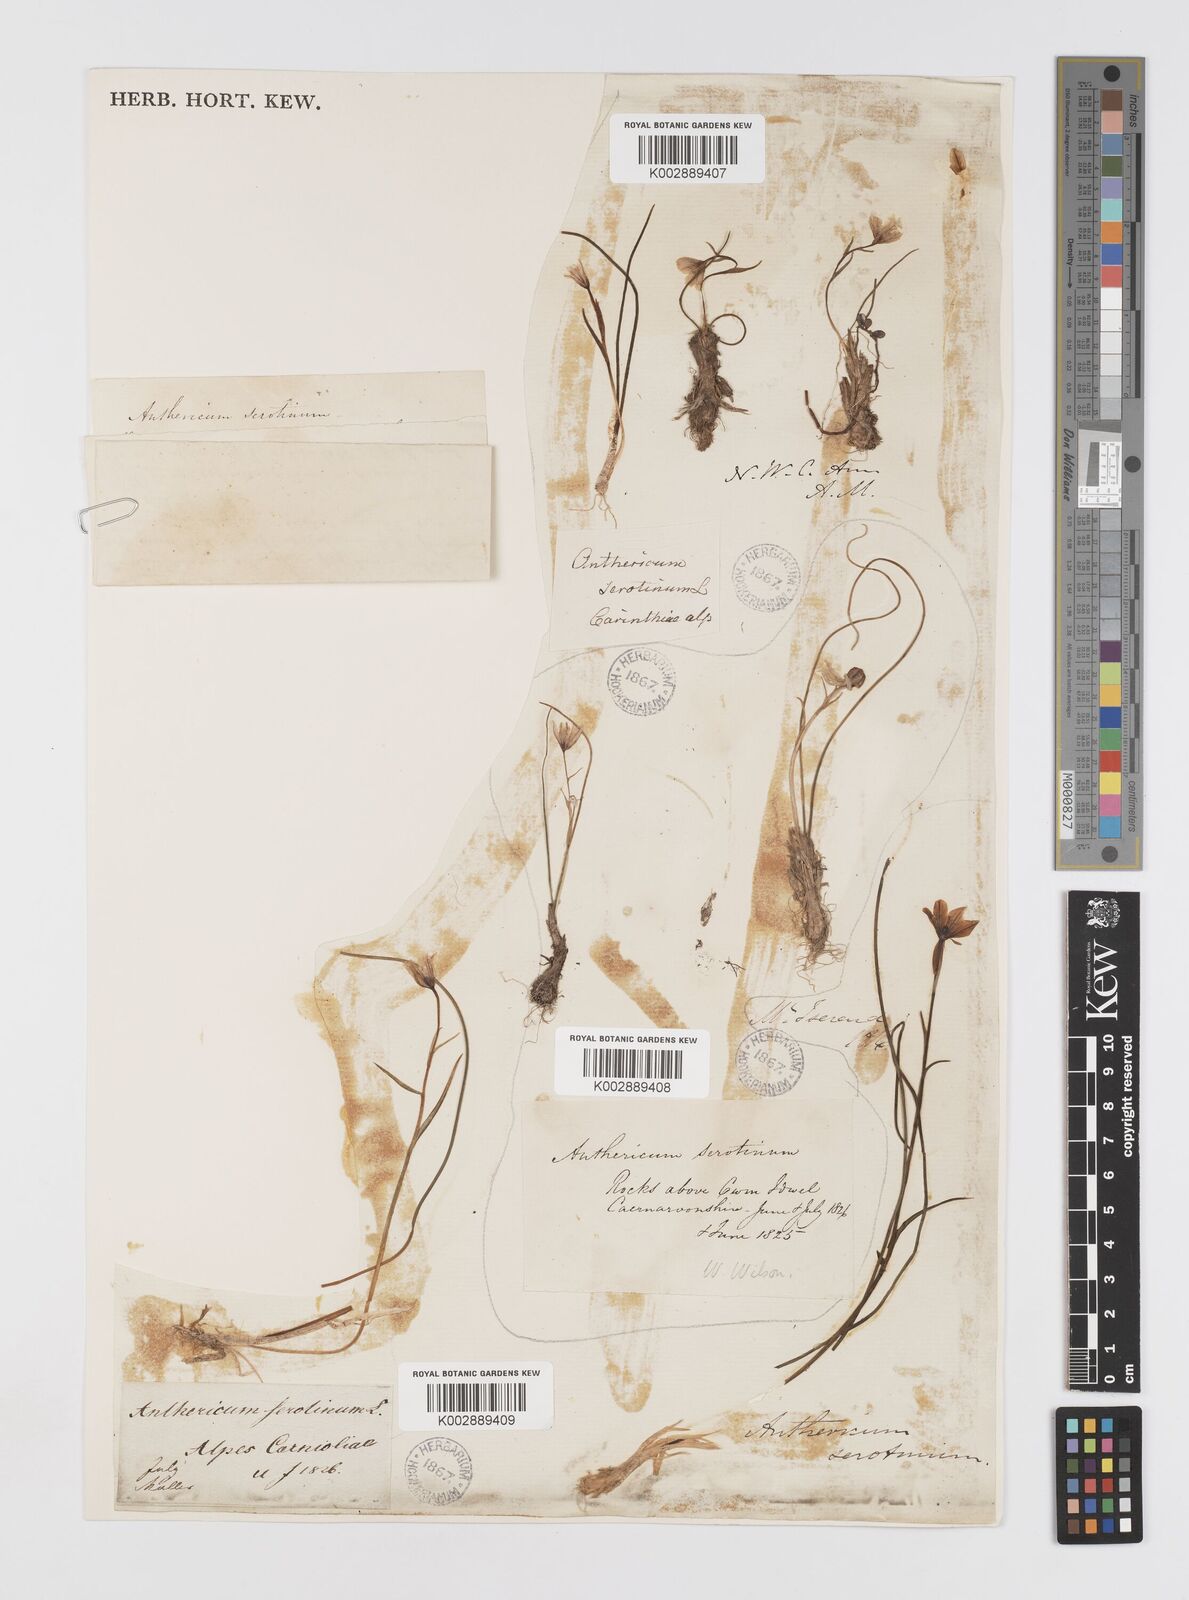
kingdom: Plantae
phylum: Tracheophyta
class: Liliopsida
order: Liliales
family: Liliaceae
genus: Gagea
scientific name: Gagea
